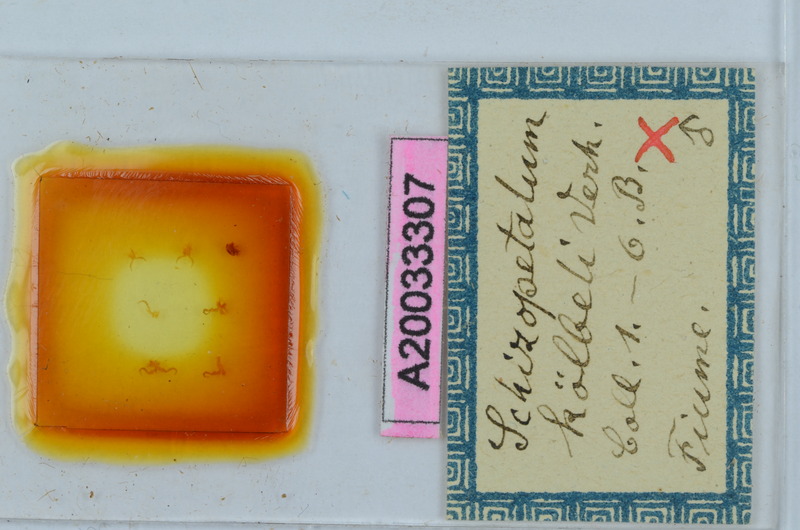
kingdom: Animalia
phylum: Arthropoda
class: Diplopoda
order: Callipodida
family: Schizopetalidae
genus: Schizopetalum
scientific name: Schizopetalum koelbeli
